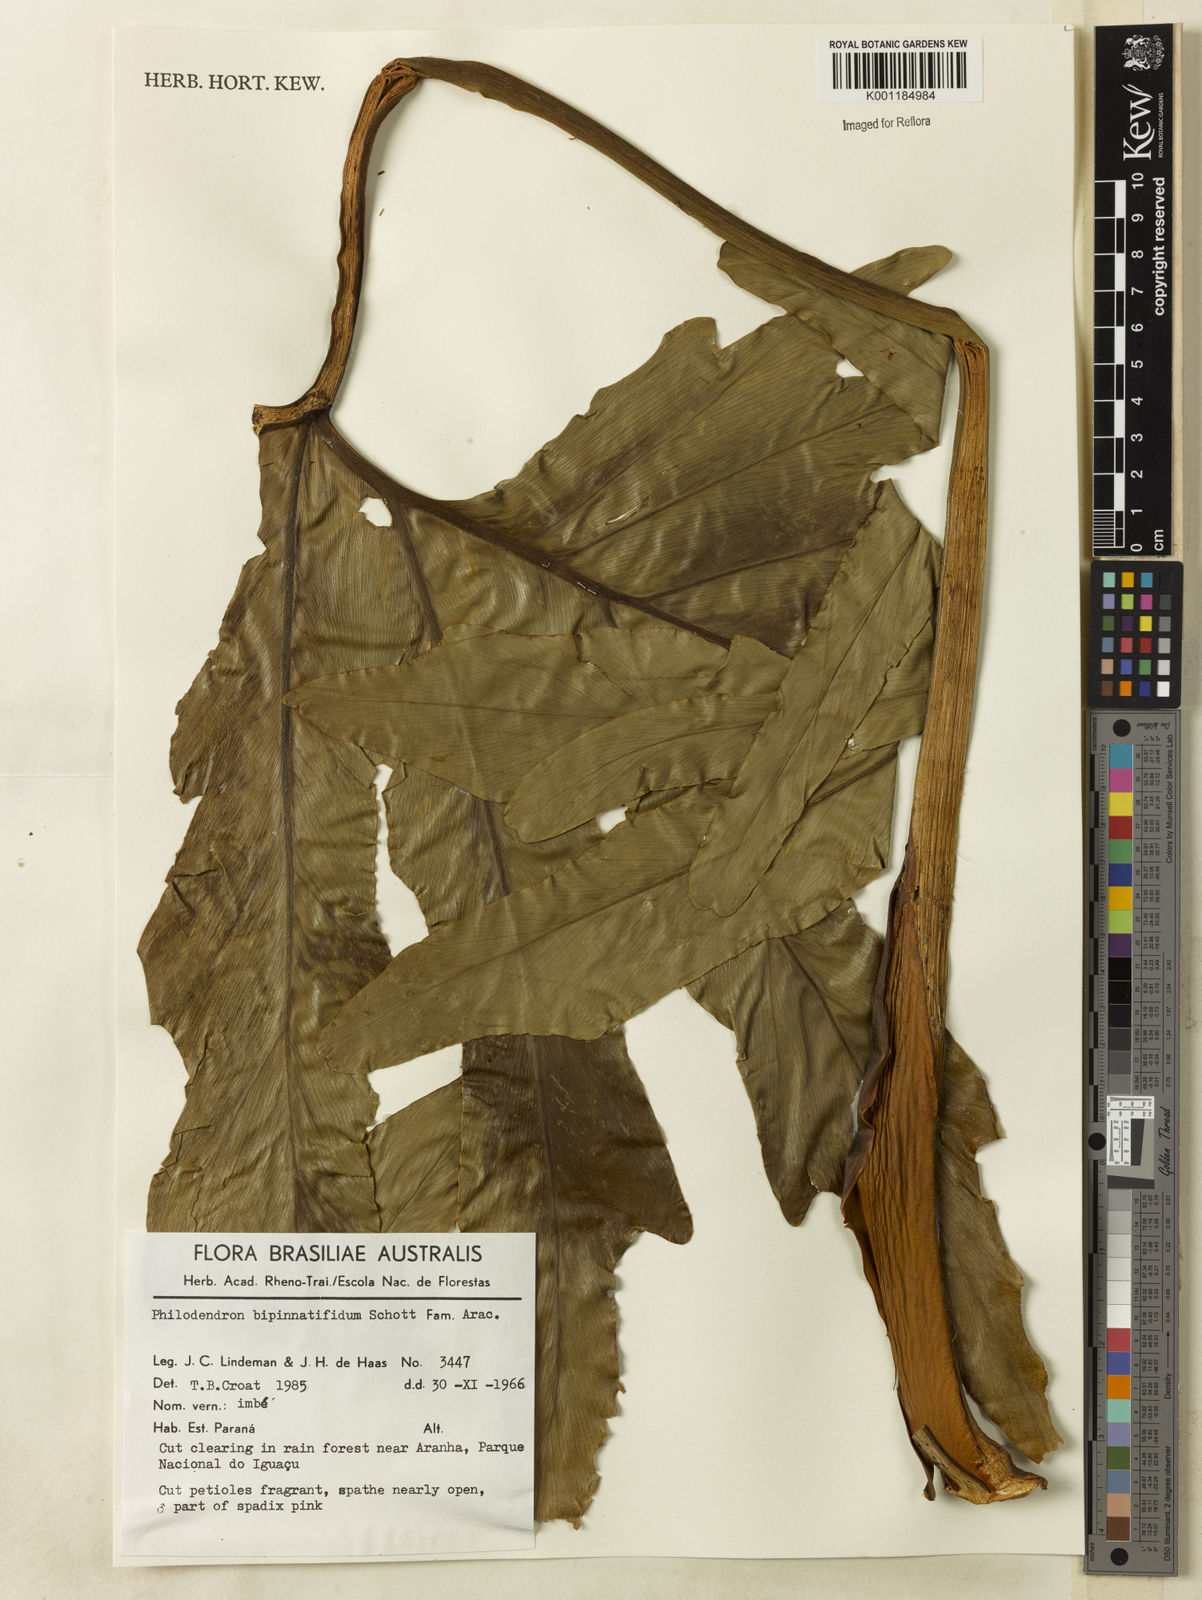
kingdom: Plantae
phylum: Tracheophyta
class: Liliopsida
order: Alismatales
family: Araceae
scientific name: Araceae
